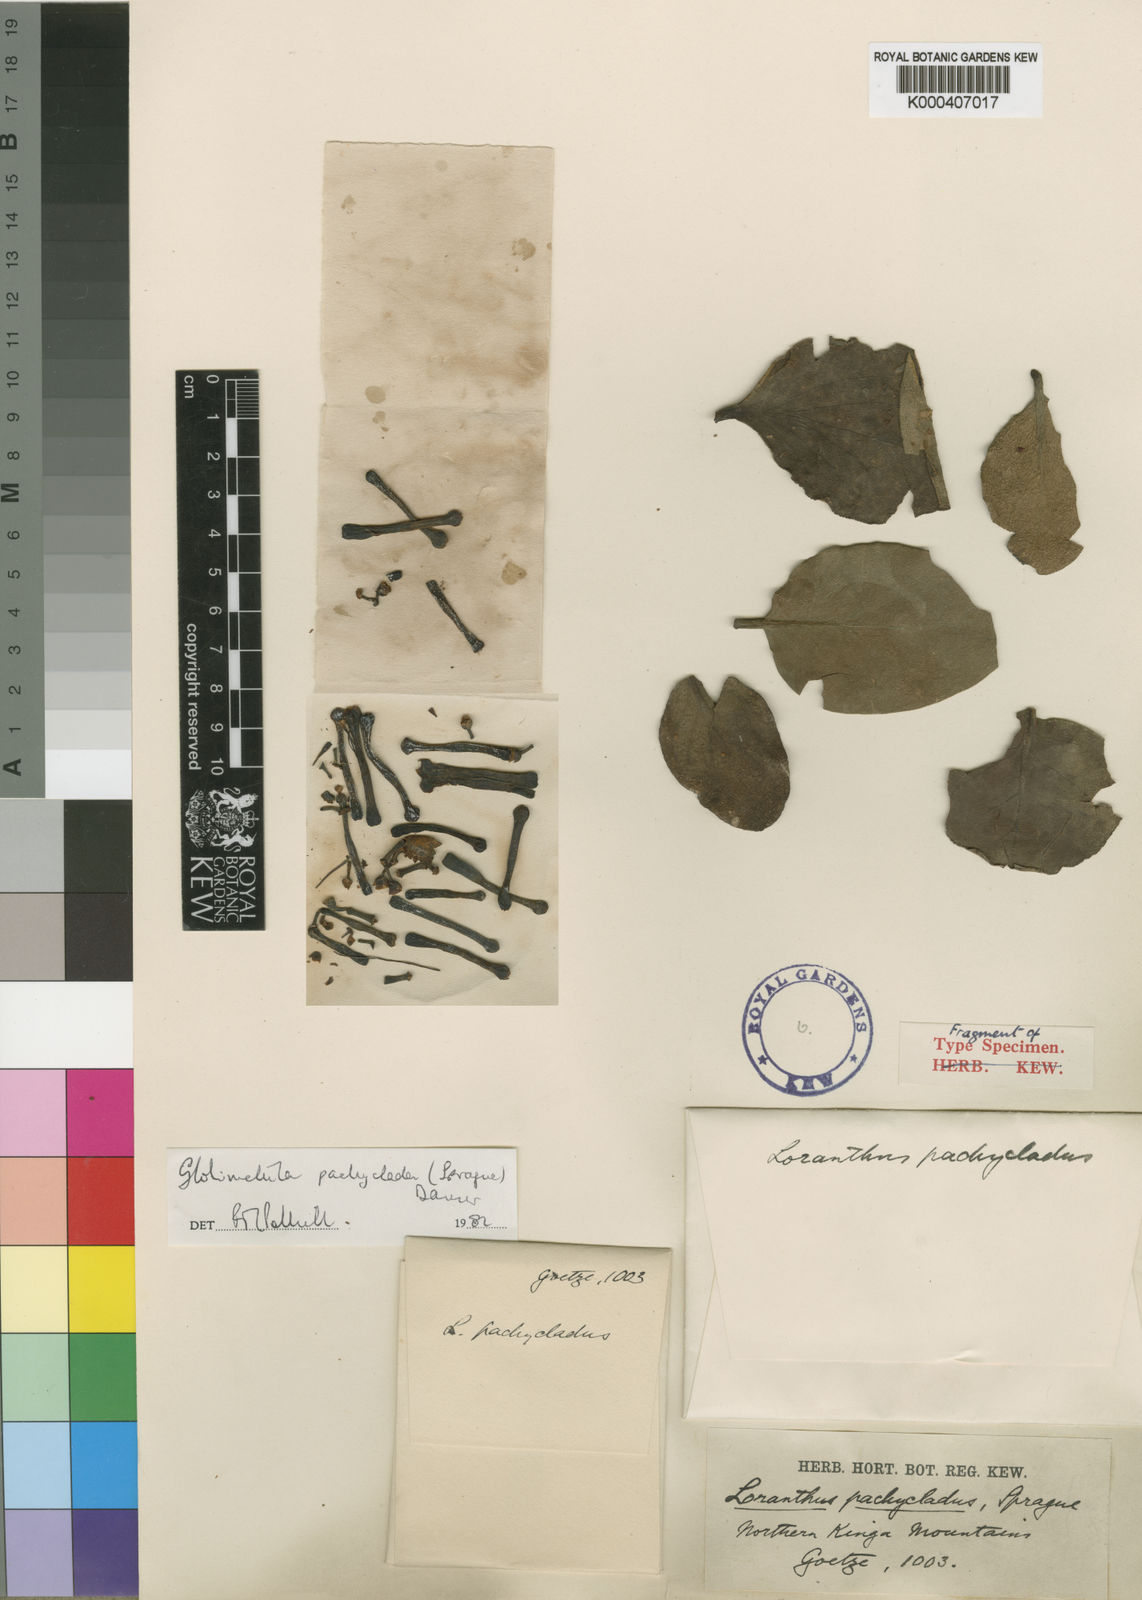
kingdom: Plantae
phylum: Tracheophyta
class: Magnoliopsida
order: Santalales
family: Loranthaceae
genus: Globimetula
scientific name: Globimetula pachyclada
